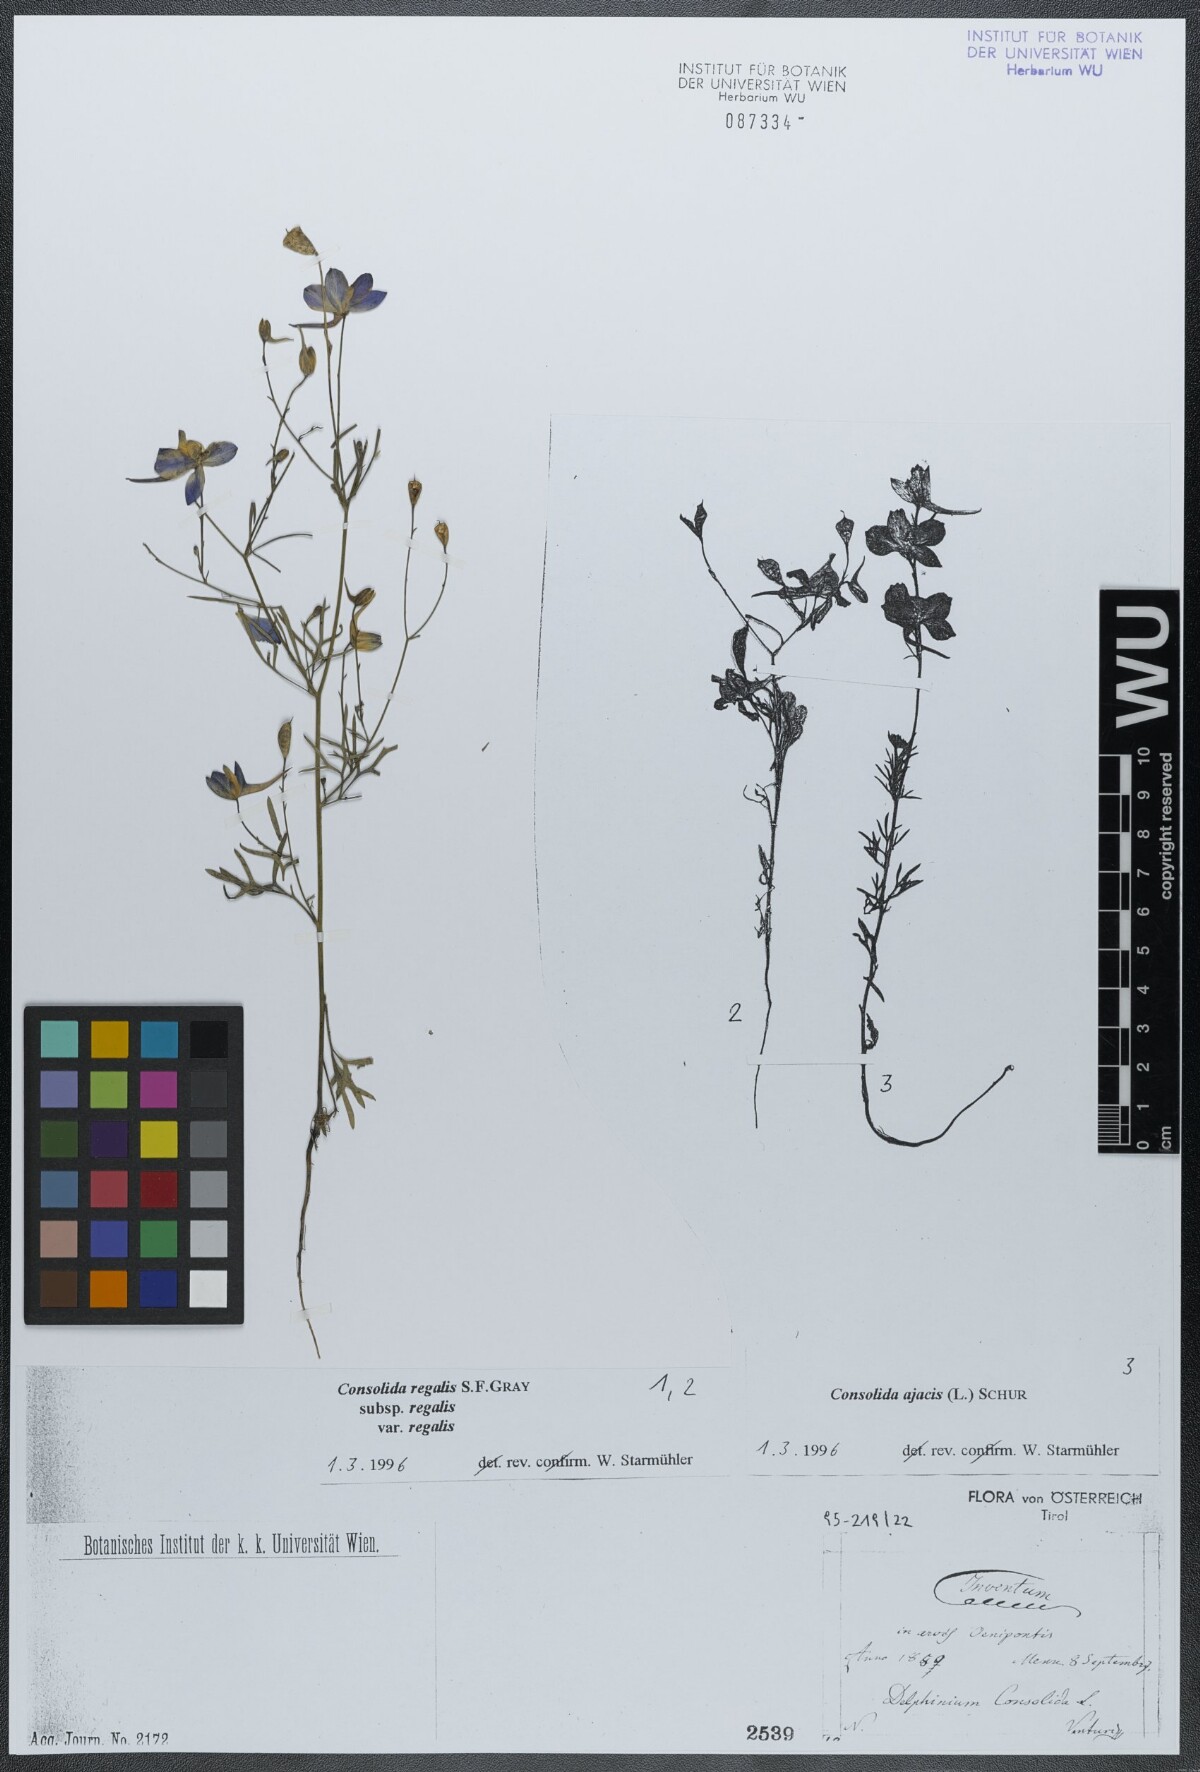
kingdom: Plantae
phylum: Tracheophyta
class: Magnoliopsida
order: Ranunculales
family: Ranunculaceae
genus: Delphinium
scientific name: Delphinium consolida
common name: Branching larkspur
